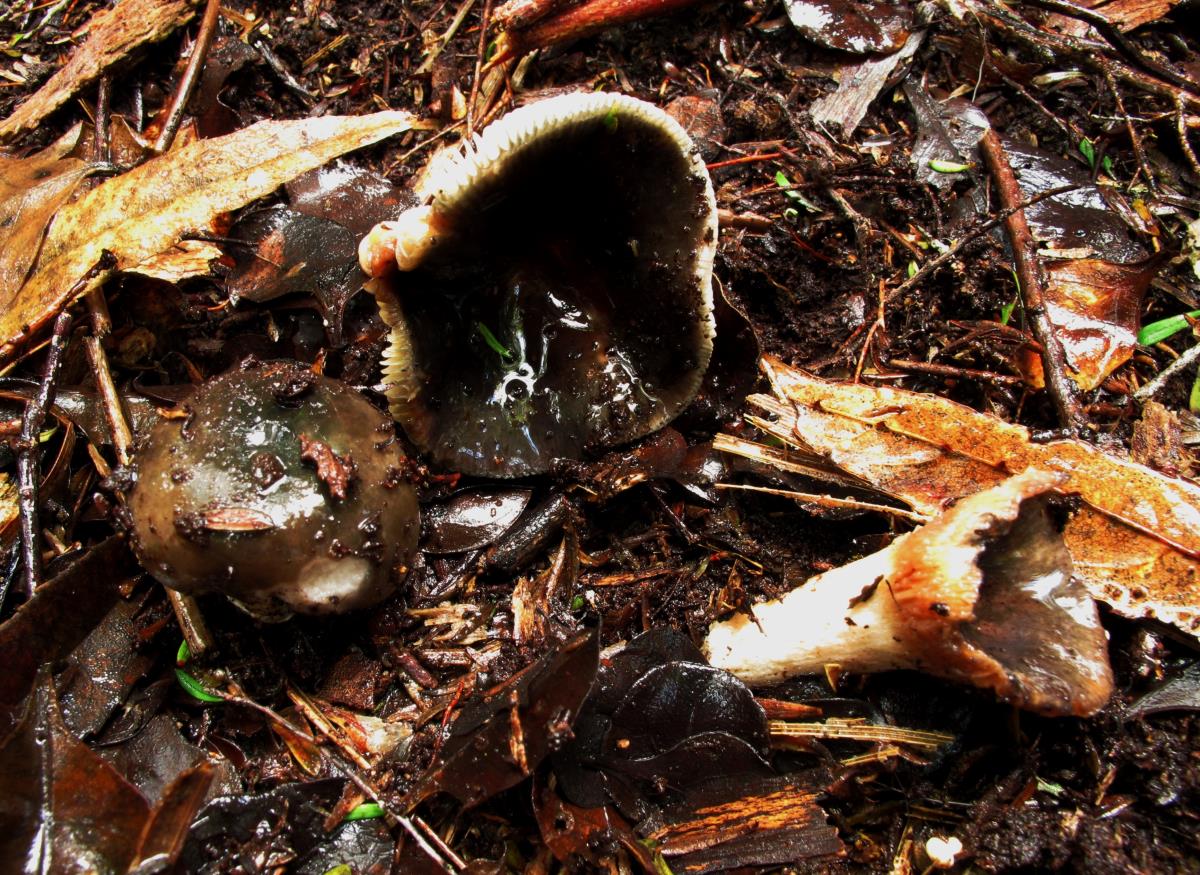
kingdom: Fungi
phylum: Basidiomycota
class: Agaricomycetes
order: Russulales
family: Russulaceae
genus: Russula
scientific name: Russula
